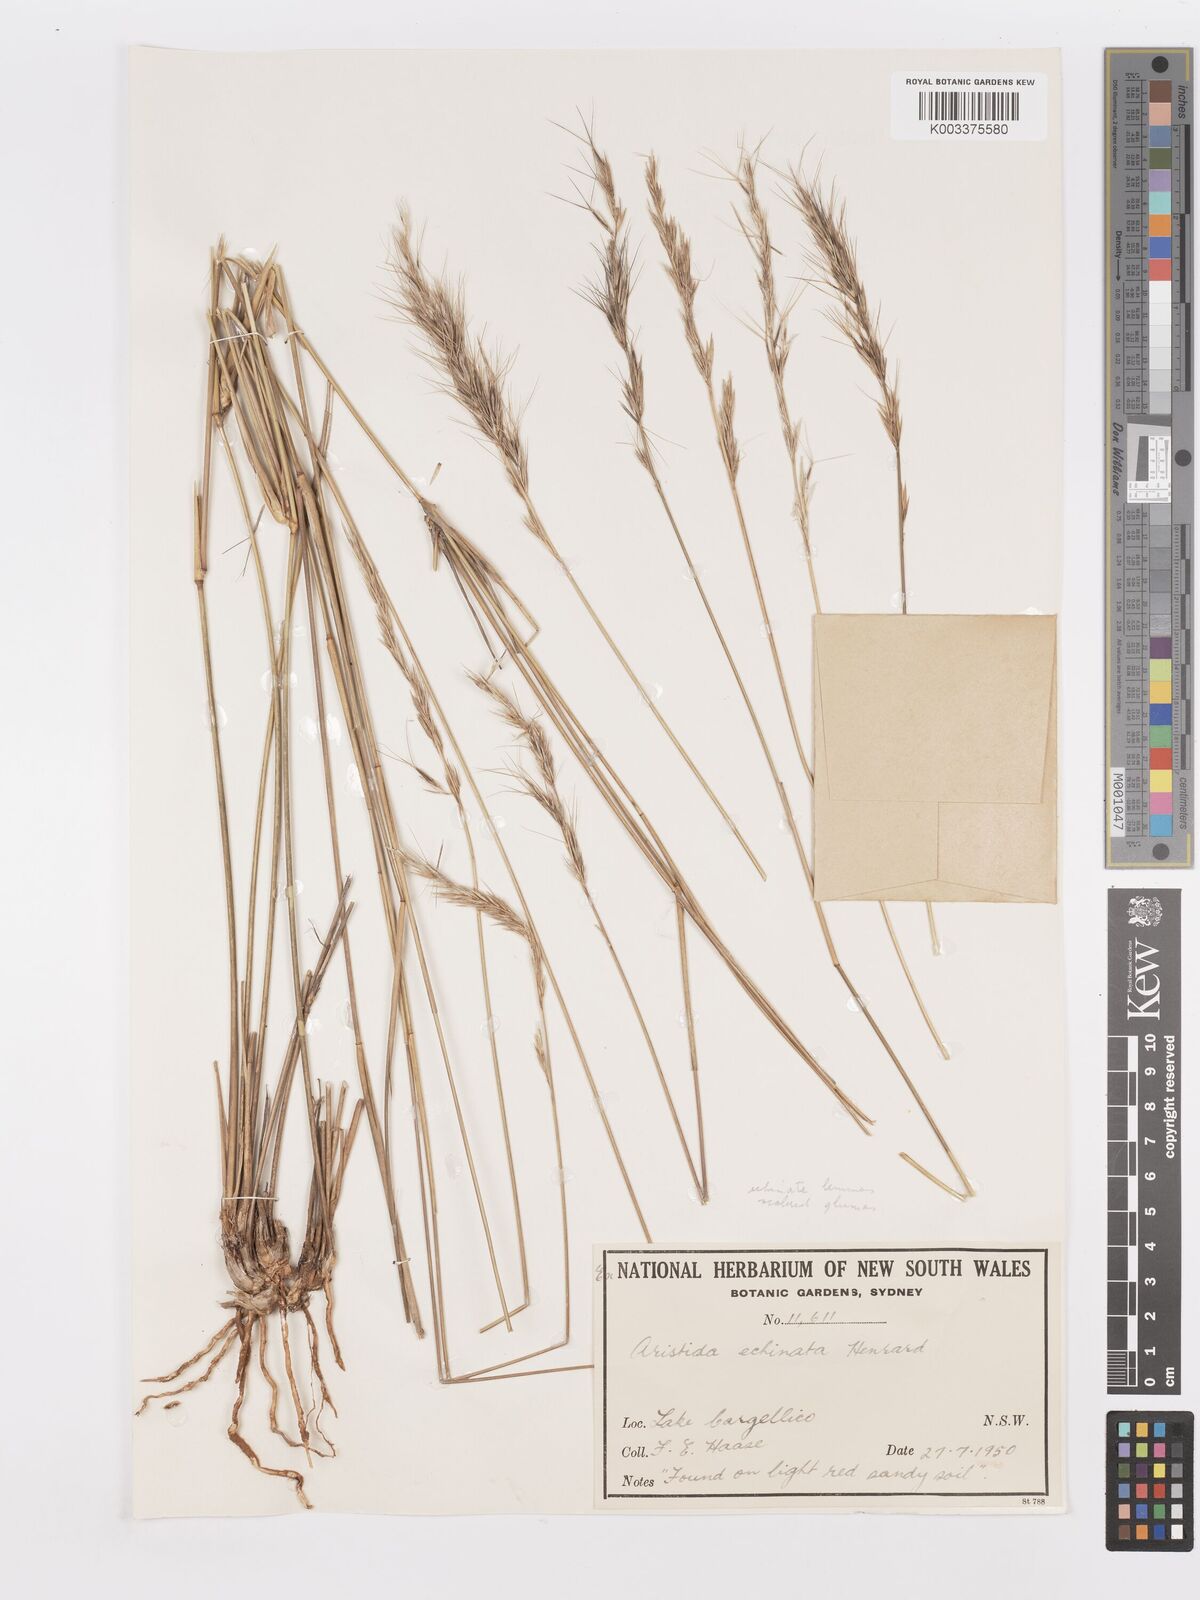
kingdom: Plantae
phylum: Tracheophyta
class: Liliopsida
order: Poales
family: Poaceae
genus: Aristida
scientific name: Aristida echinata
